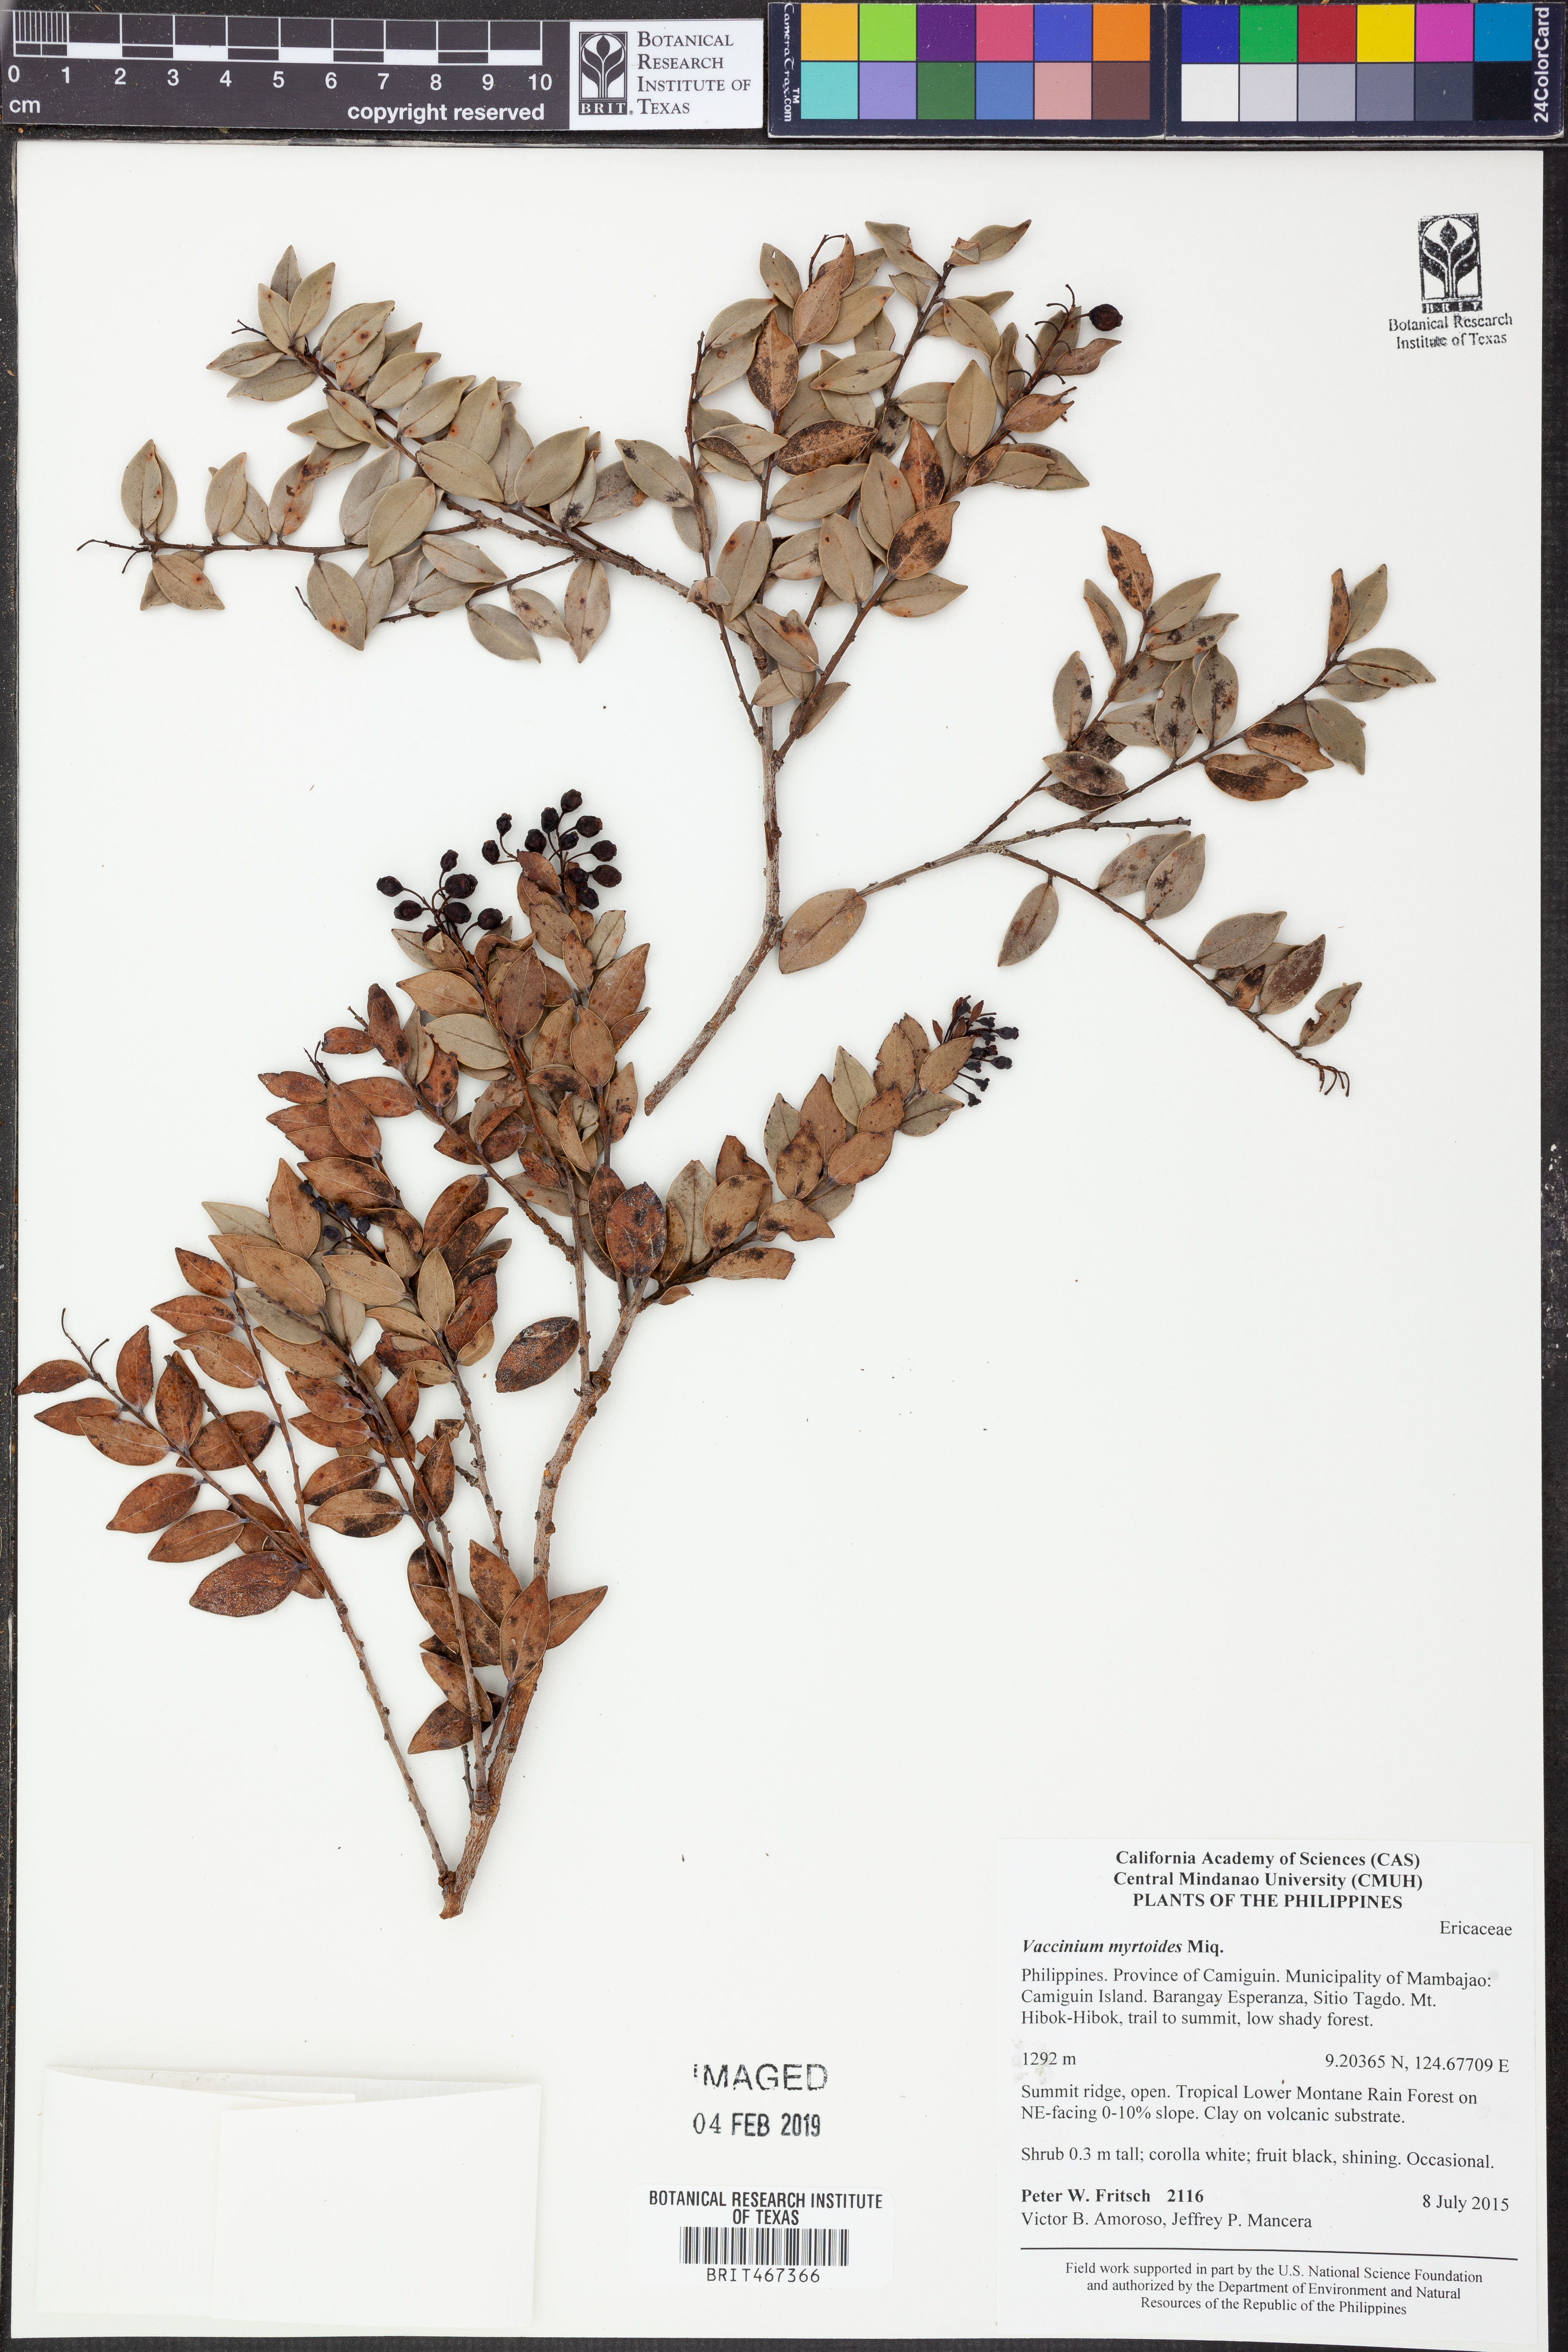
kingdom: Plantae
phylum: Tracheophyta
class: Magnoliopsida
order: Ericales
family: Ericaceae
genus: Vaccinium
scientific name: Vaccinium myrtoides
